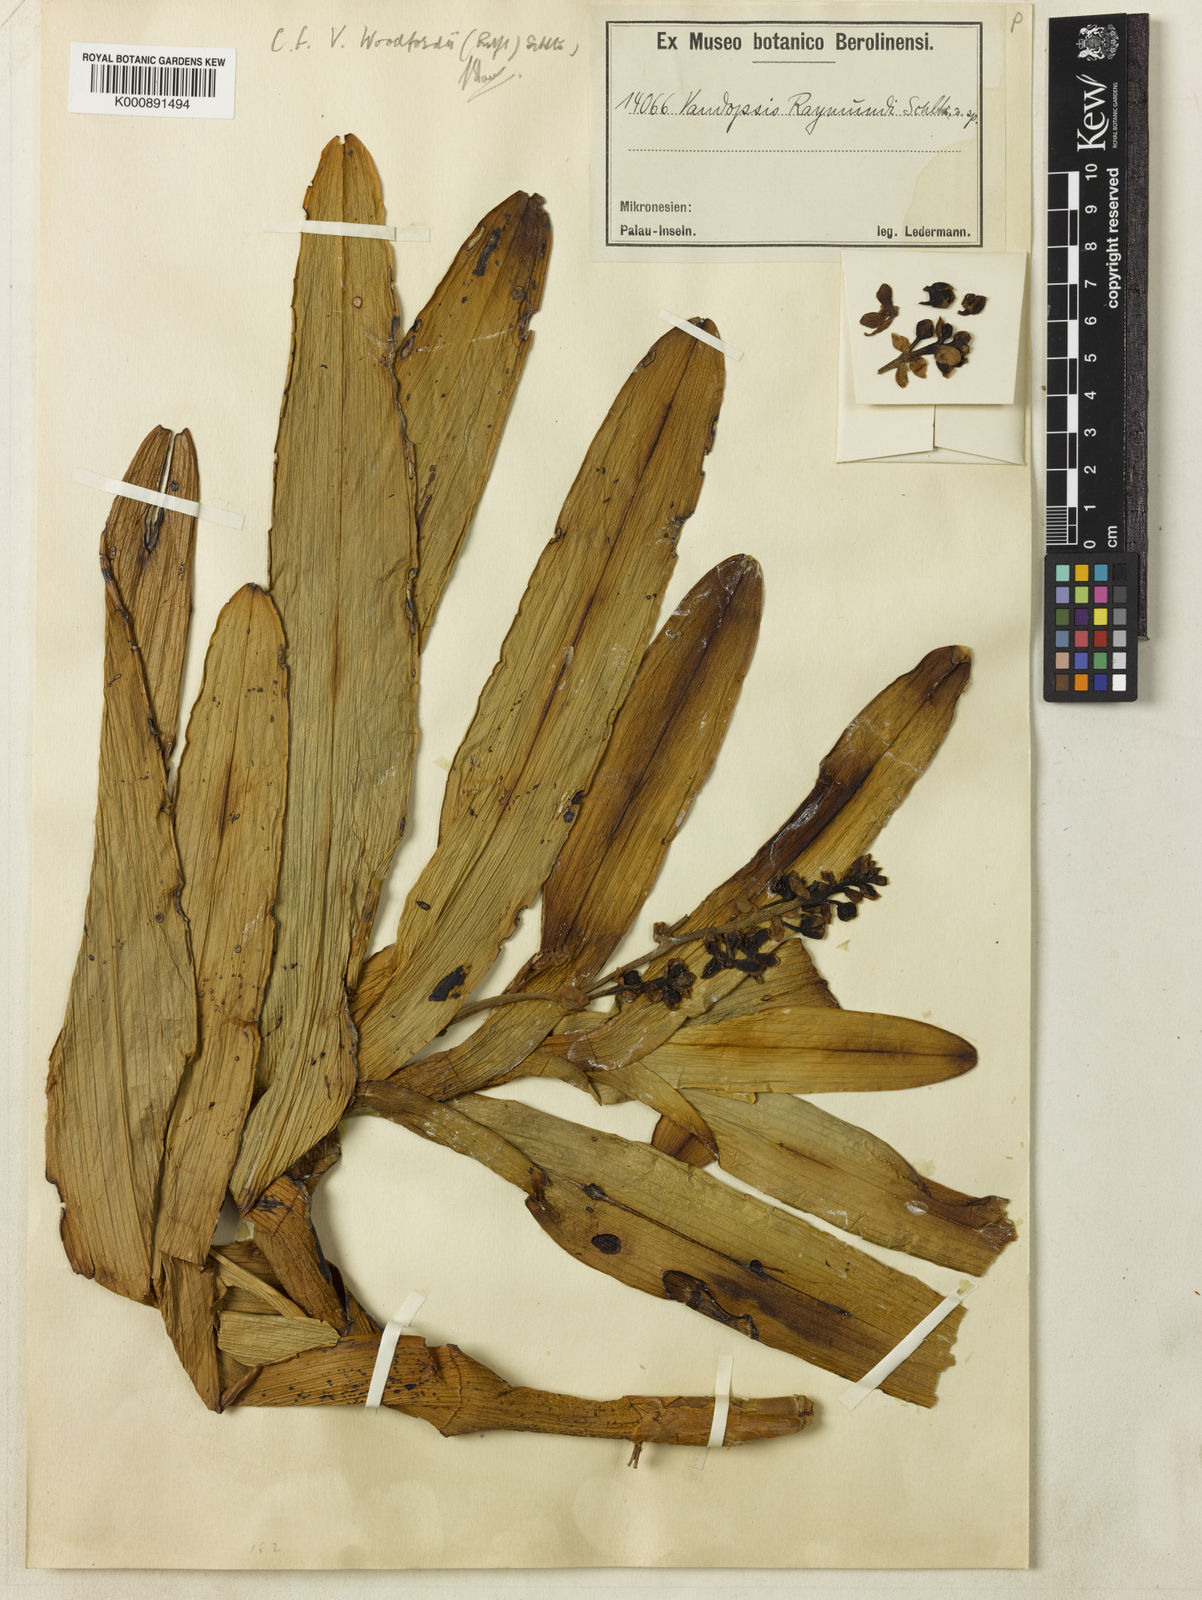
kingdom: Plantae
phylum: Tracheophyta
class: Liliopsida
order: Asparagales
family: Orchidaceae
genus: Sarcanthopsis
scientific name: Sarcanthopsis
